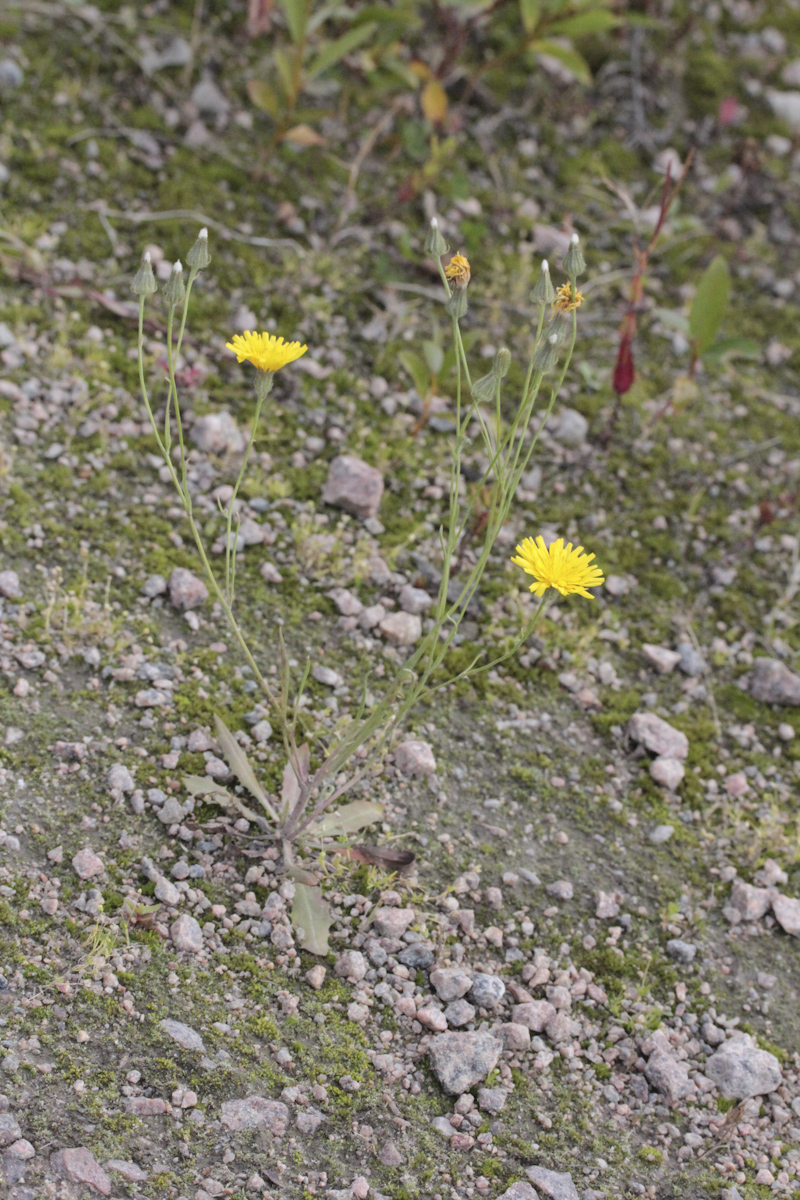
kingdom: Plantae
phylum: Tracheophyta
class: Magnoliopsida
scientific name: Magnoliopsida
